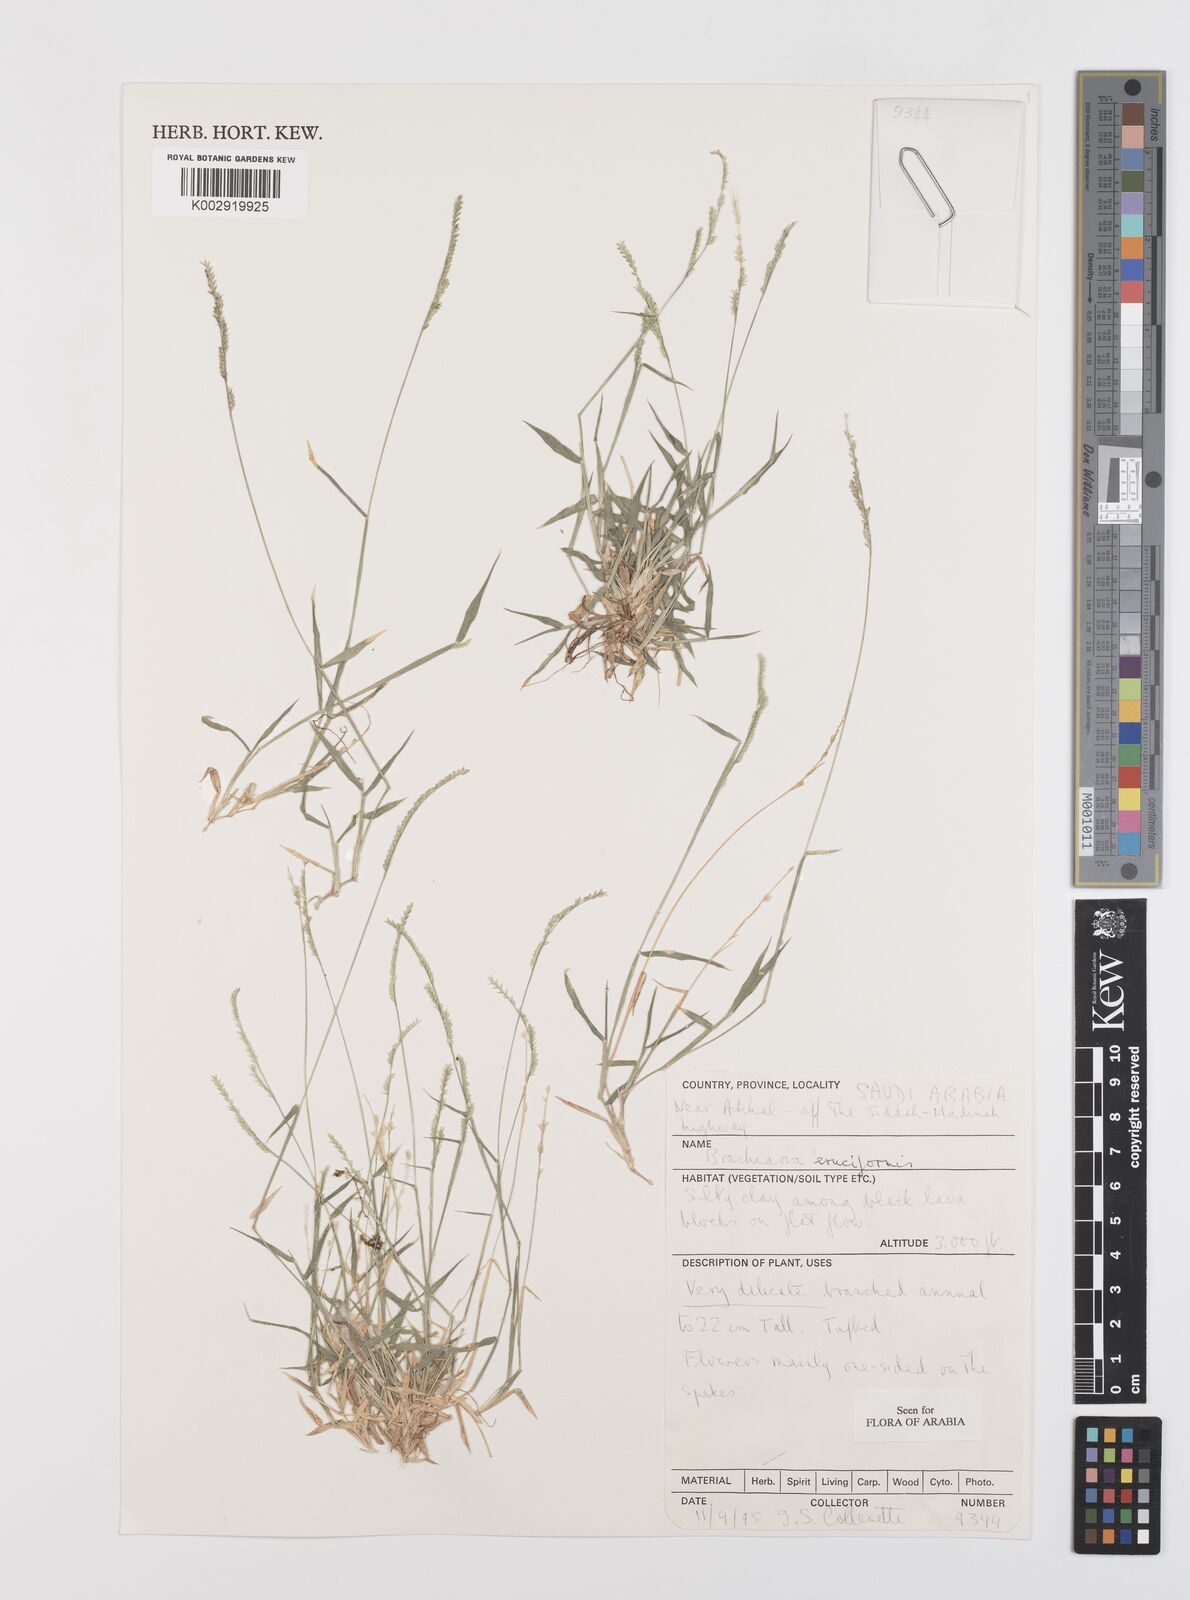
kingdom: Plantae
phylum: Tracheophyta
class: Liliopsida
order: Poales
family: Poaceae
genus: Moorochloa
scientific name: Moorochloa eruciformis
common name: Sweet signalgrass
